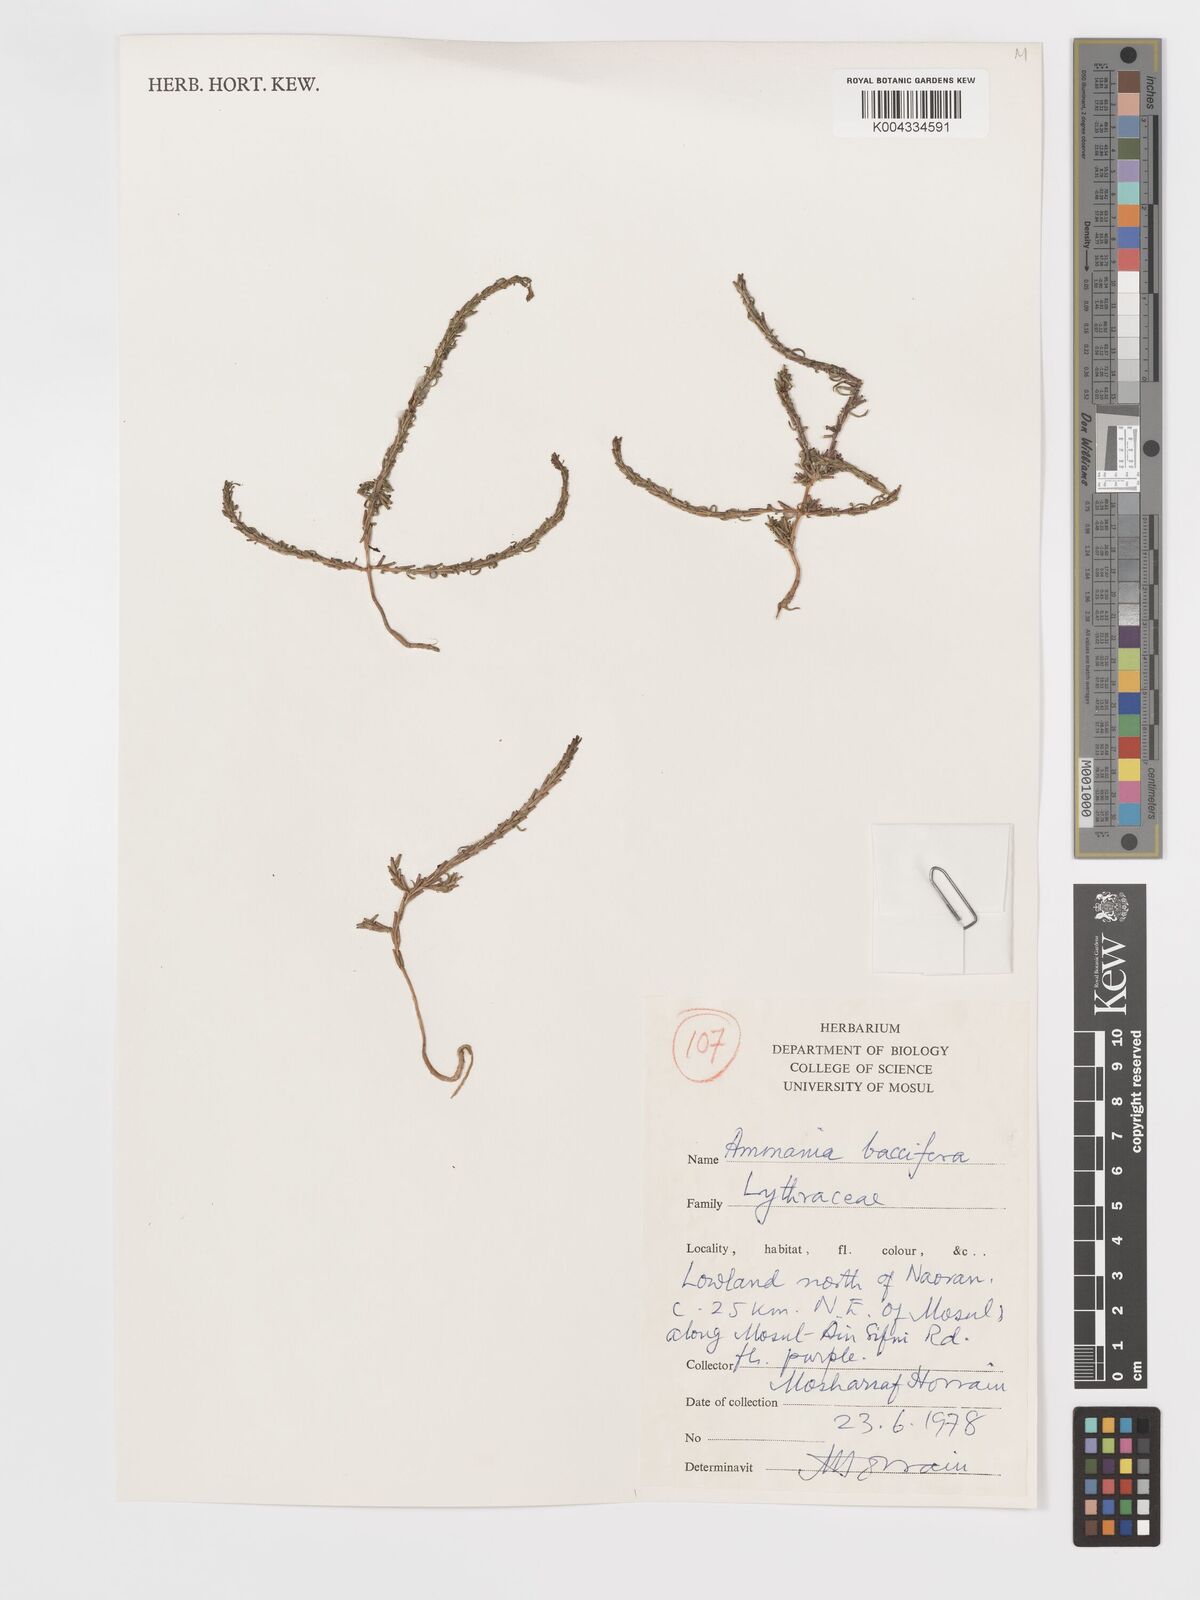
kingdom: Plantae
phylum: Tracheophyta
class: Magnoliopsida
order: Myrtales
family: Lythraceae
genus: Ammannia
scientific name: Ammannia baccifera
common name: Blistering ammania
